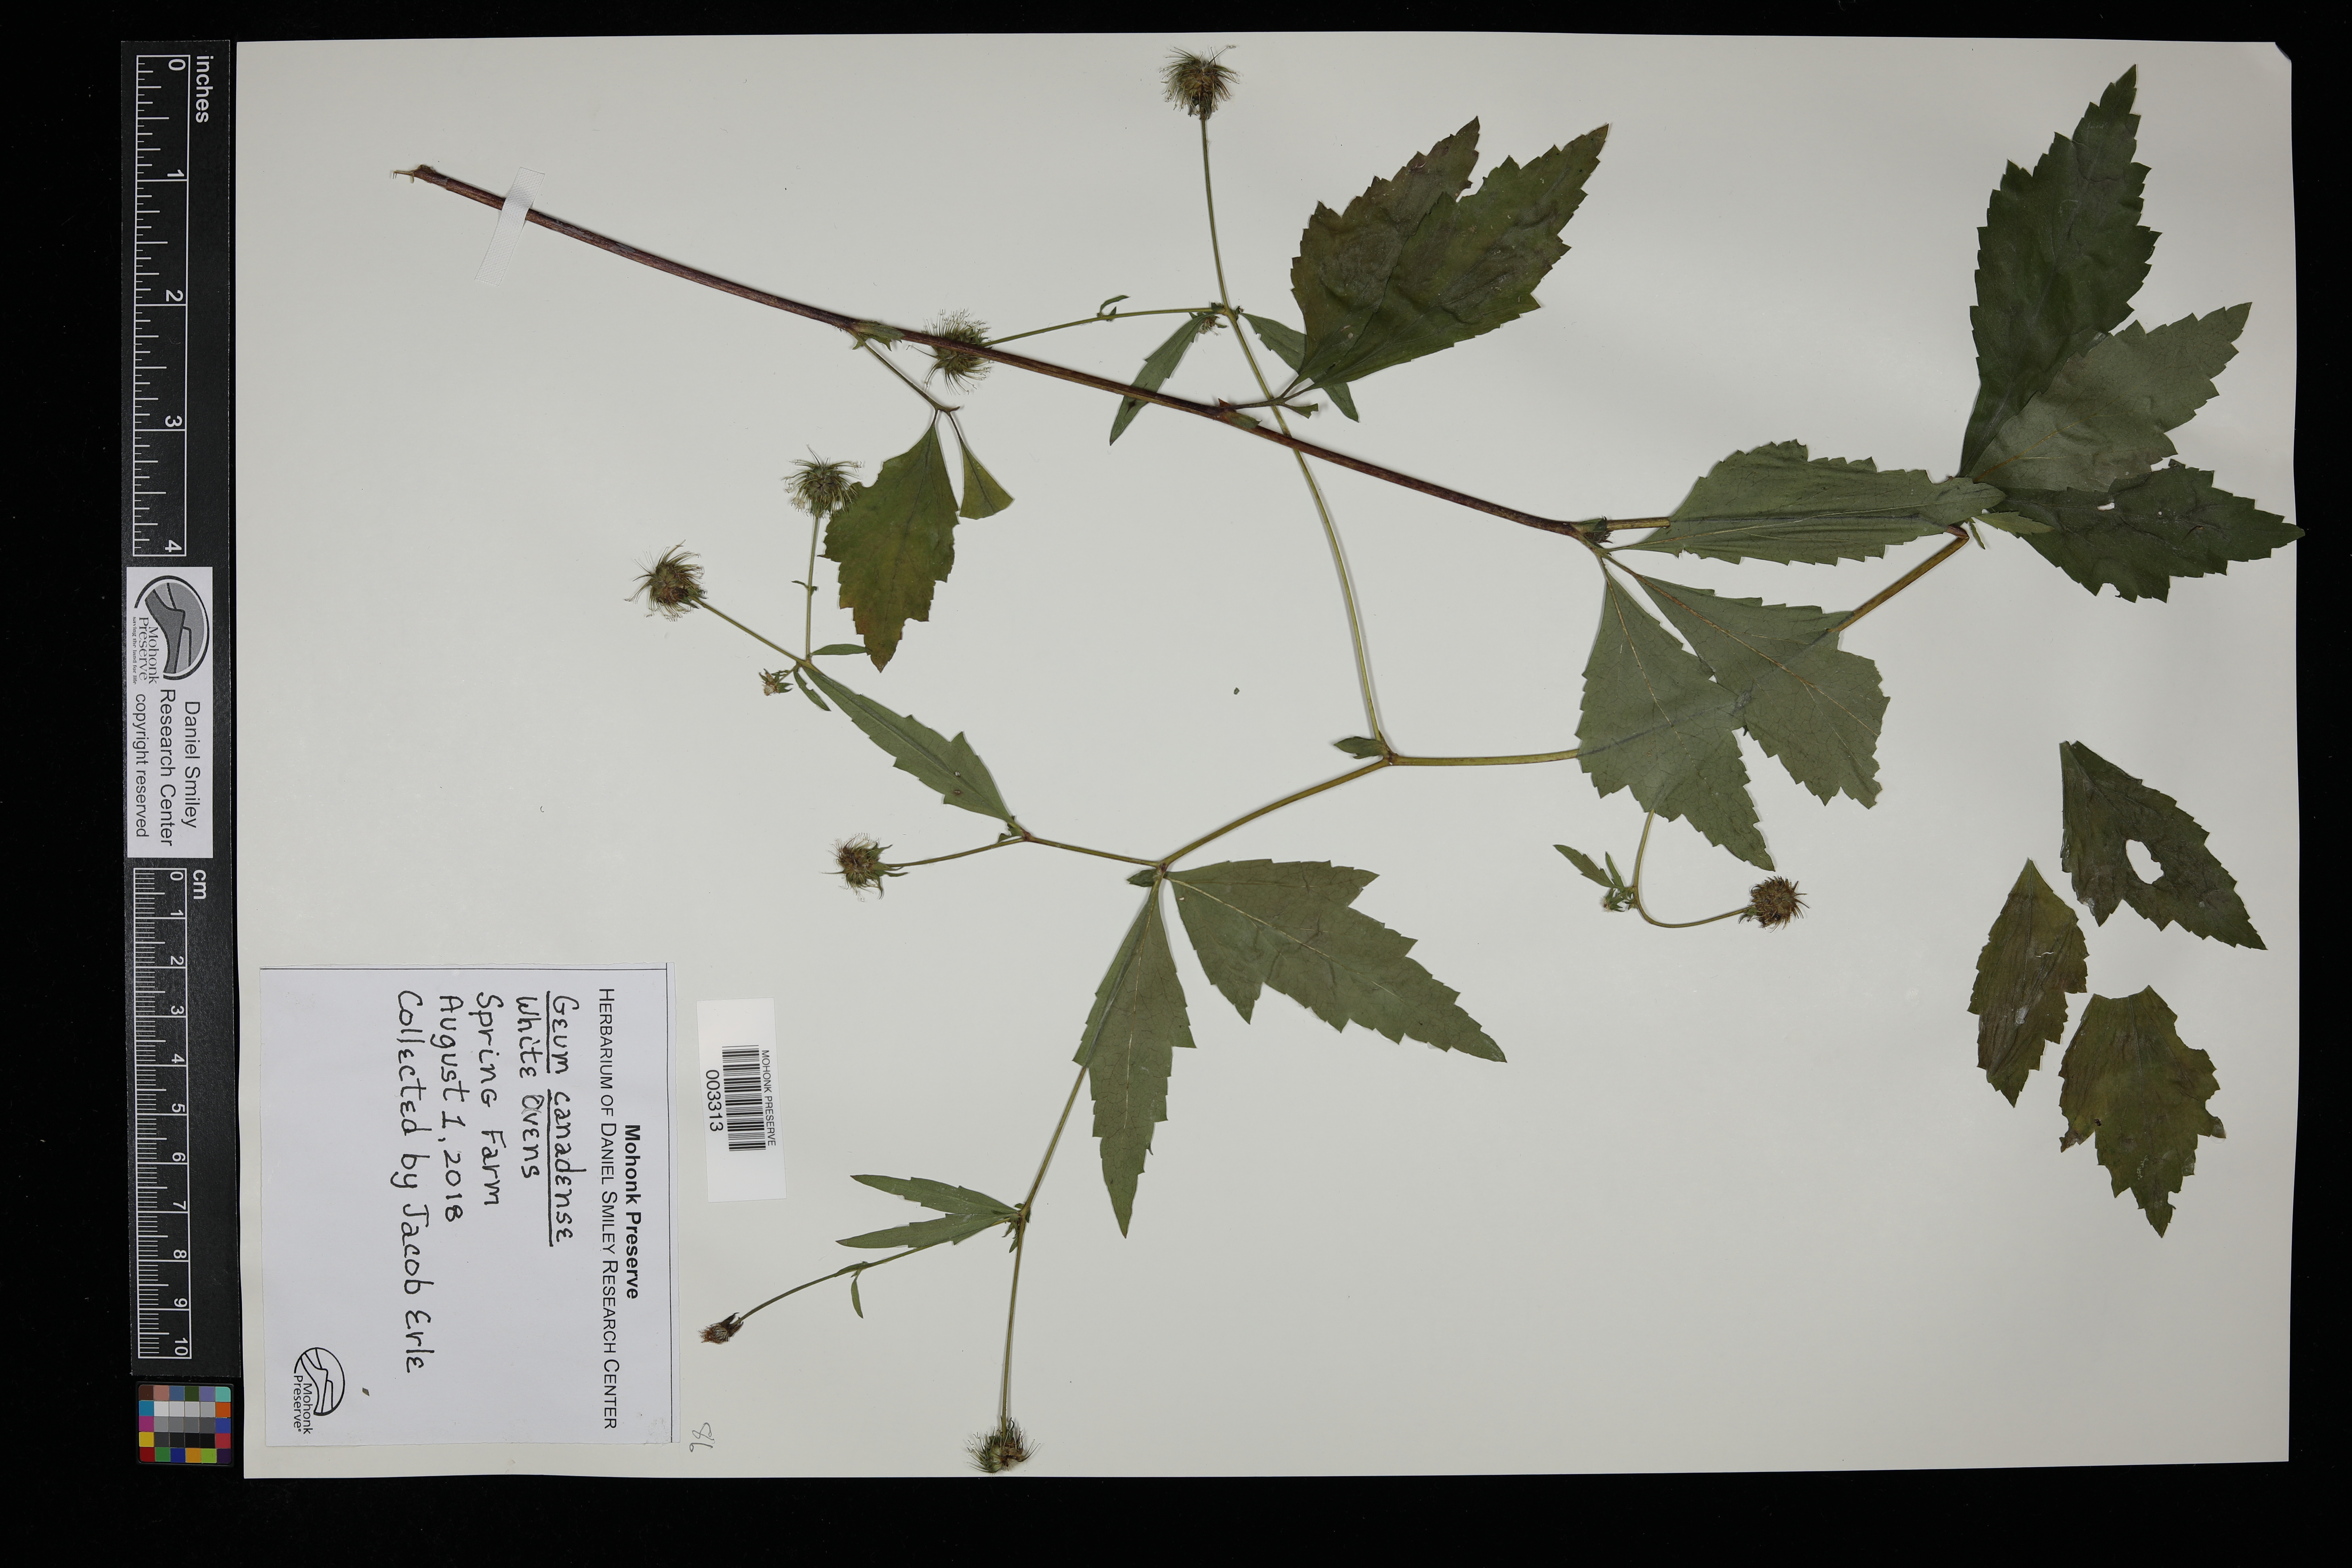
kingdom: Plantae
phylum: Tracheophyta
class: Magnoliopsida
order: Rosales
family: Rosaceae
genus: Geum
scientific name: Geum canadense
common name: White avens
